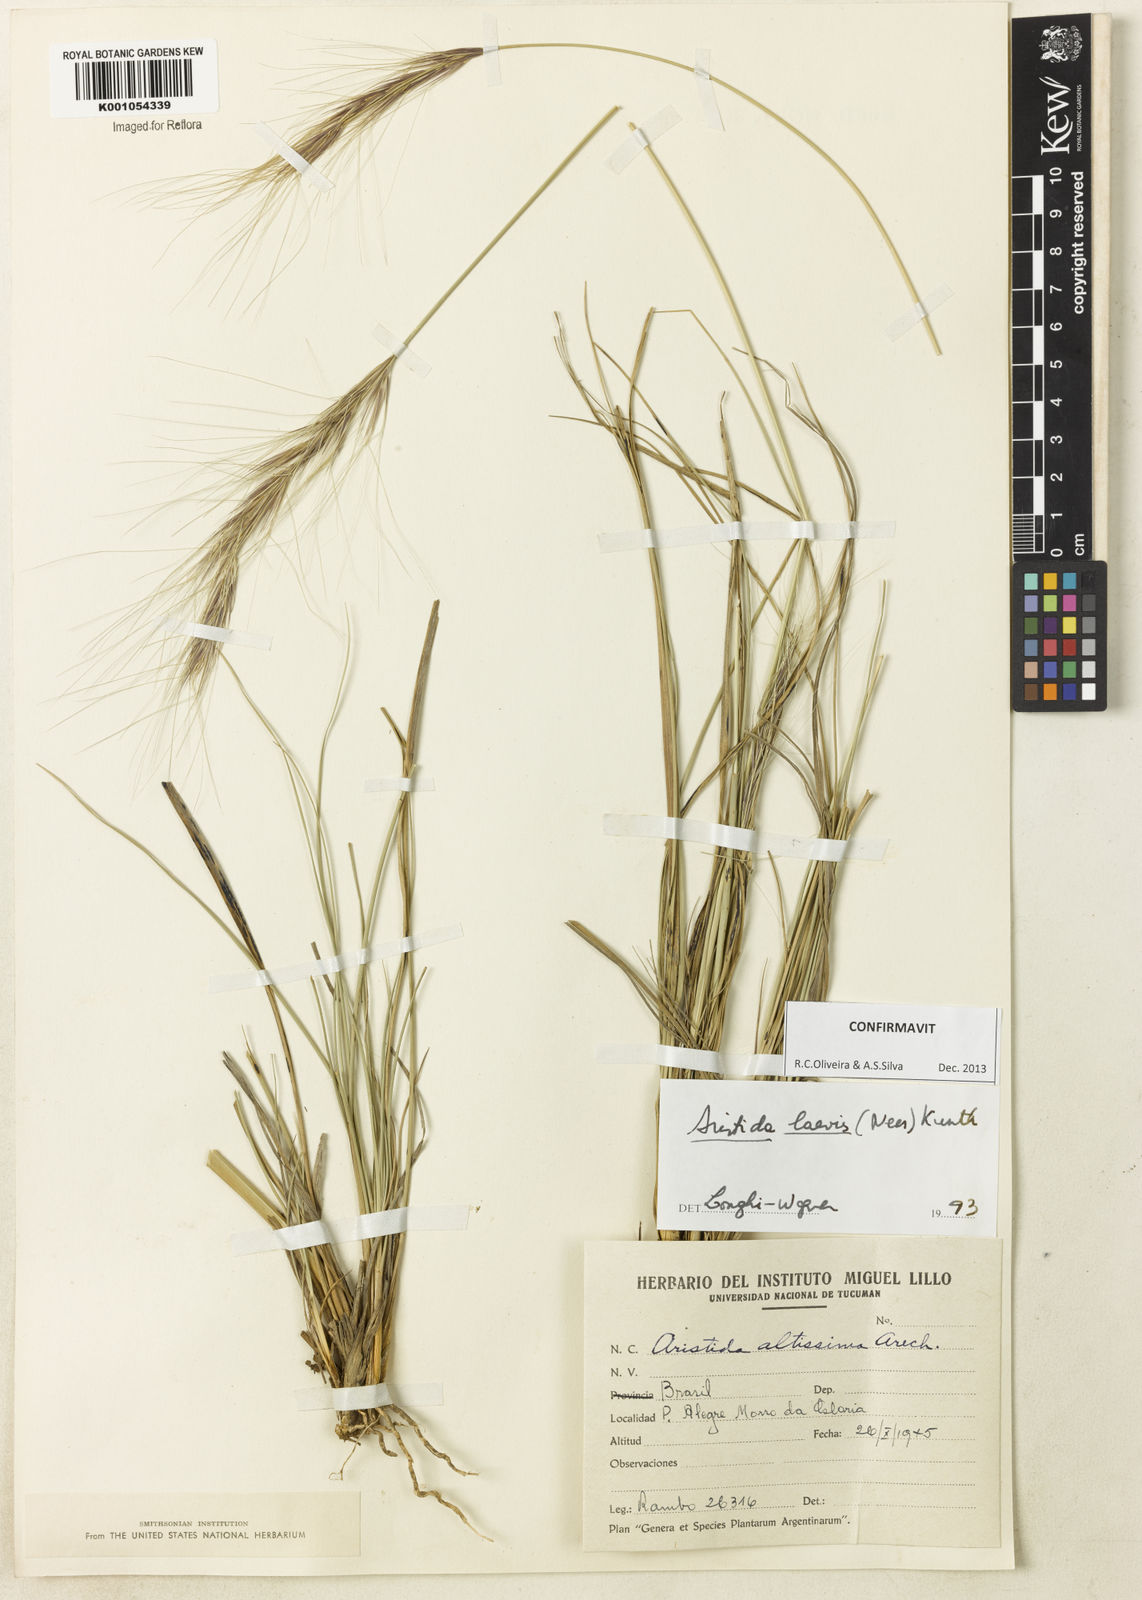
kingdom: Plantae
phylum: Tracheophyta
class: Liliopsida
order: Poales
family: Poaceae
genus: Aristida
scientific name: Aristida laevis
